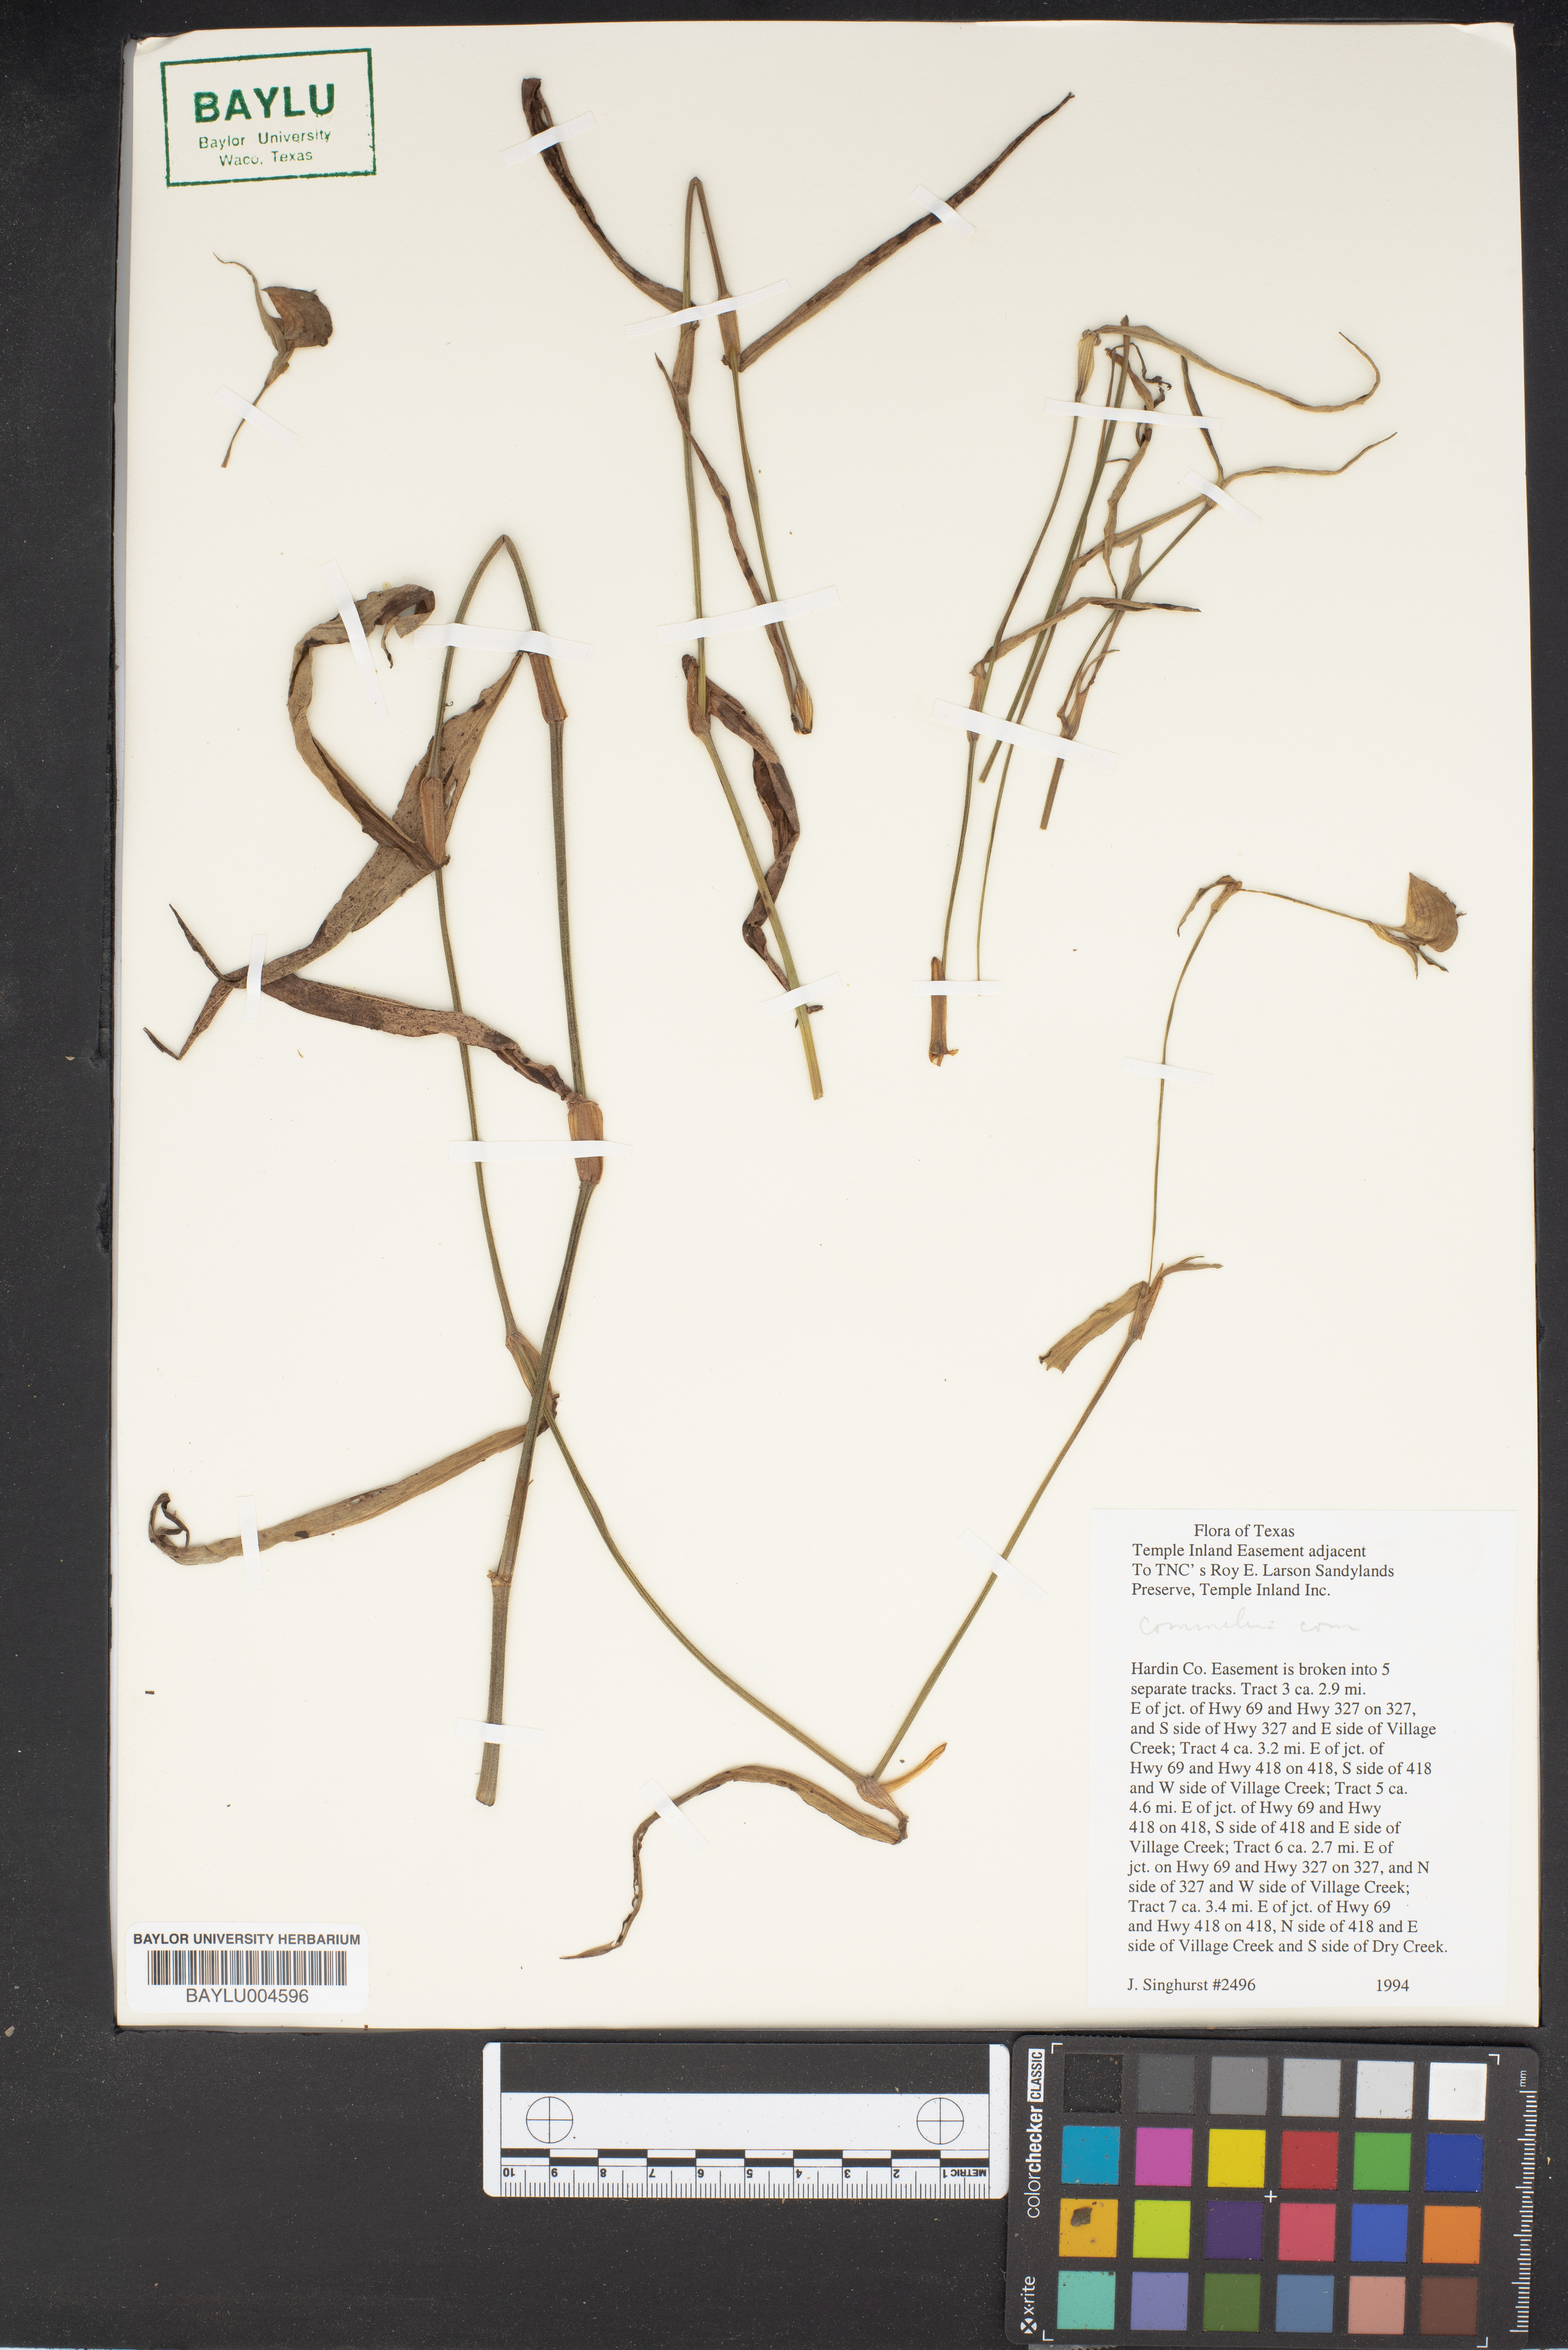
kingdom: Plantae
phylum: Tracheophyta
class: Liliopsida
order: Commelinales
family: Commelinaceae
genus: Commelina
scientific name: Commelina
